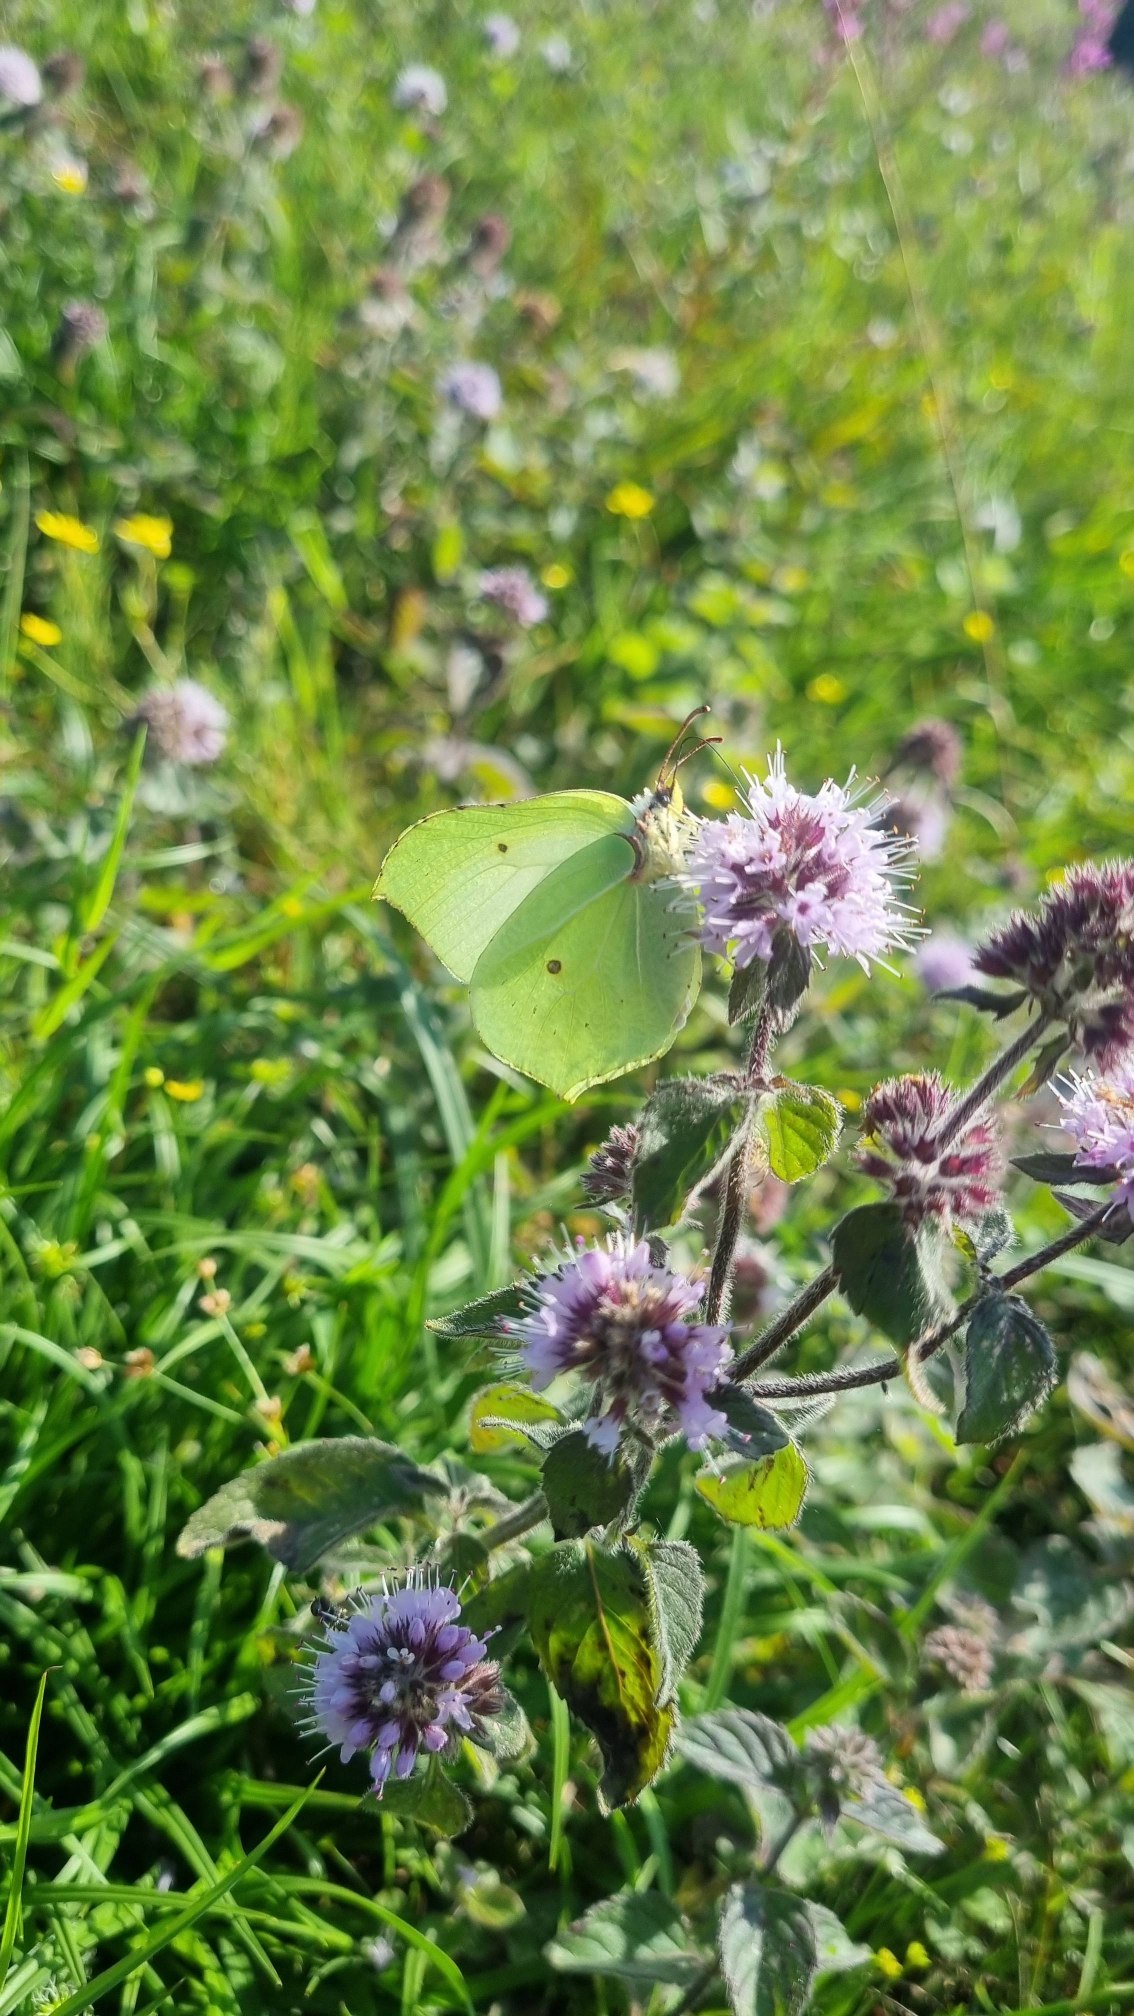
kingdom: Animalia
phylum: Arthropoda
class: Insecta
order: Lepidoptera
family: Pieridae
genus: Gonepteryx
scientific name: Gonepteryx rhamni
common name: Citronsommerfugl
